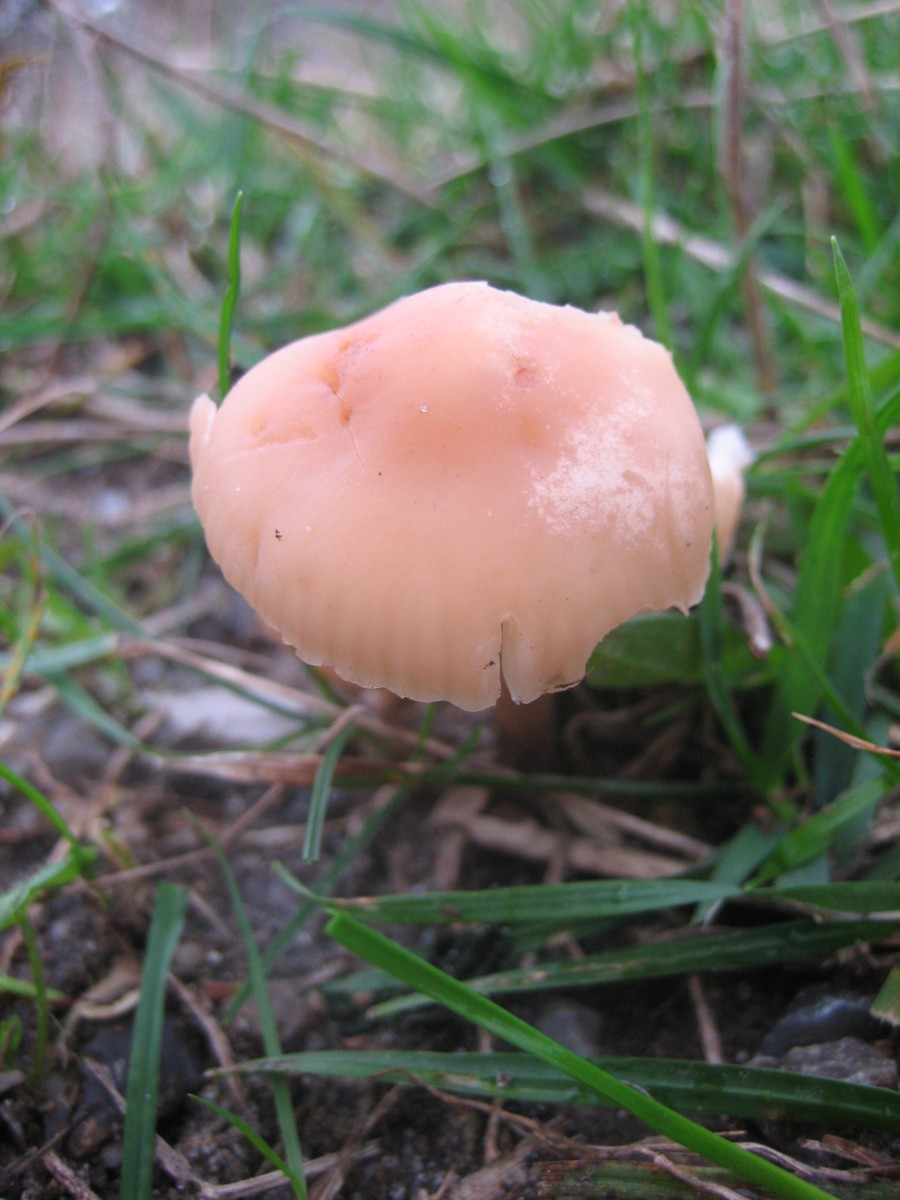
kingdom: Fungi
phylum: Basidiomycota
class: Agaricomycetes
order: Agaricales
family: Marasmiaceae
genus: Marasmius
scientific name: Marasmius oreades
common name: elledans-bruskhat
